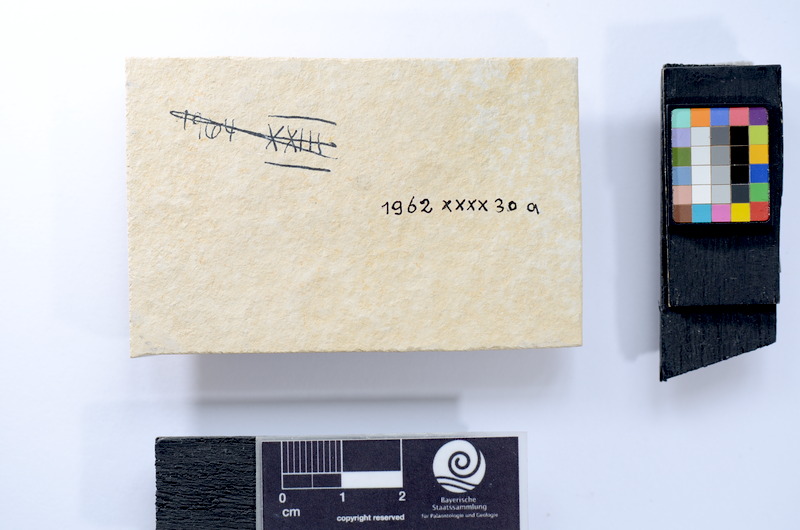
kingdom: Animalia
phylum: Chordata
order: Salmoniformes
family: Orthogonikleithridae
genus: Leptolepides
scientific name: Leptolepides sprattiformis
